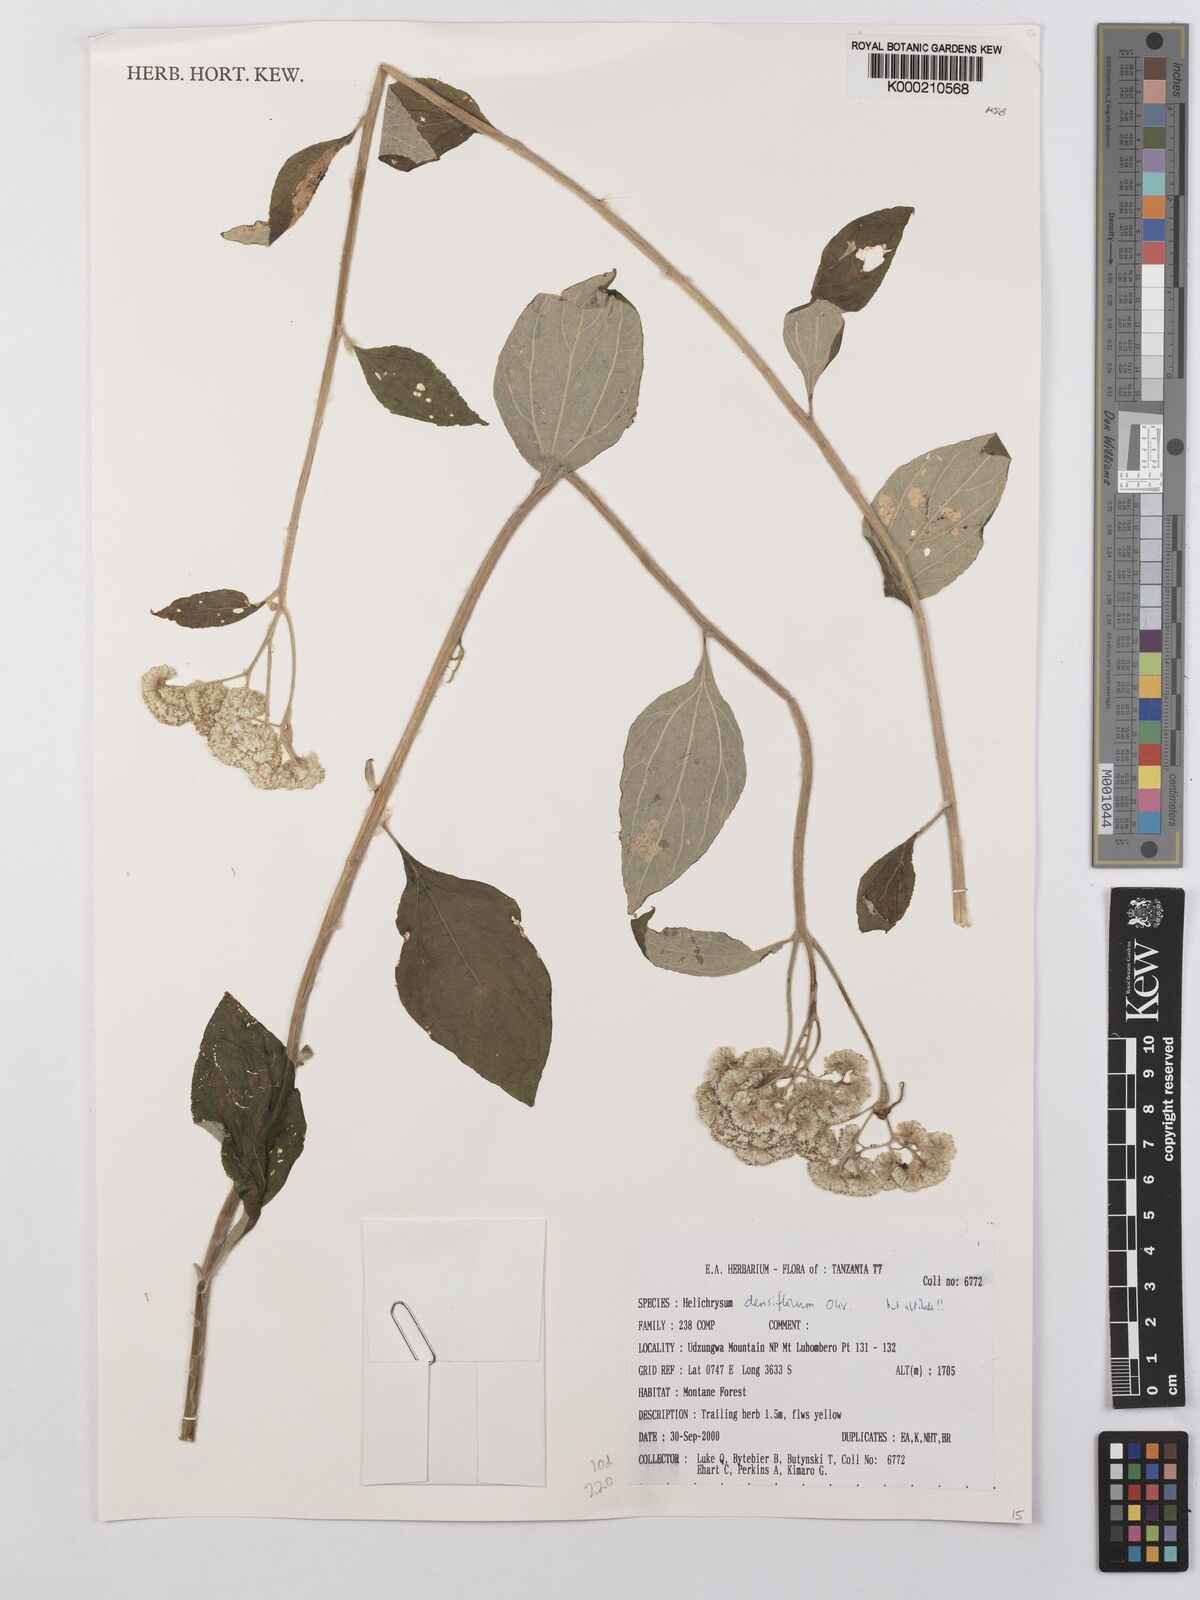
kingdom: Plantae
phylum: Tracheophyta
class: Magnoliopsida
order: Asterales
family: Asteraceae
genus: Helichrysum
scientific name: Helichrysum densiflorum
